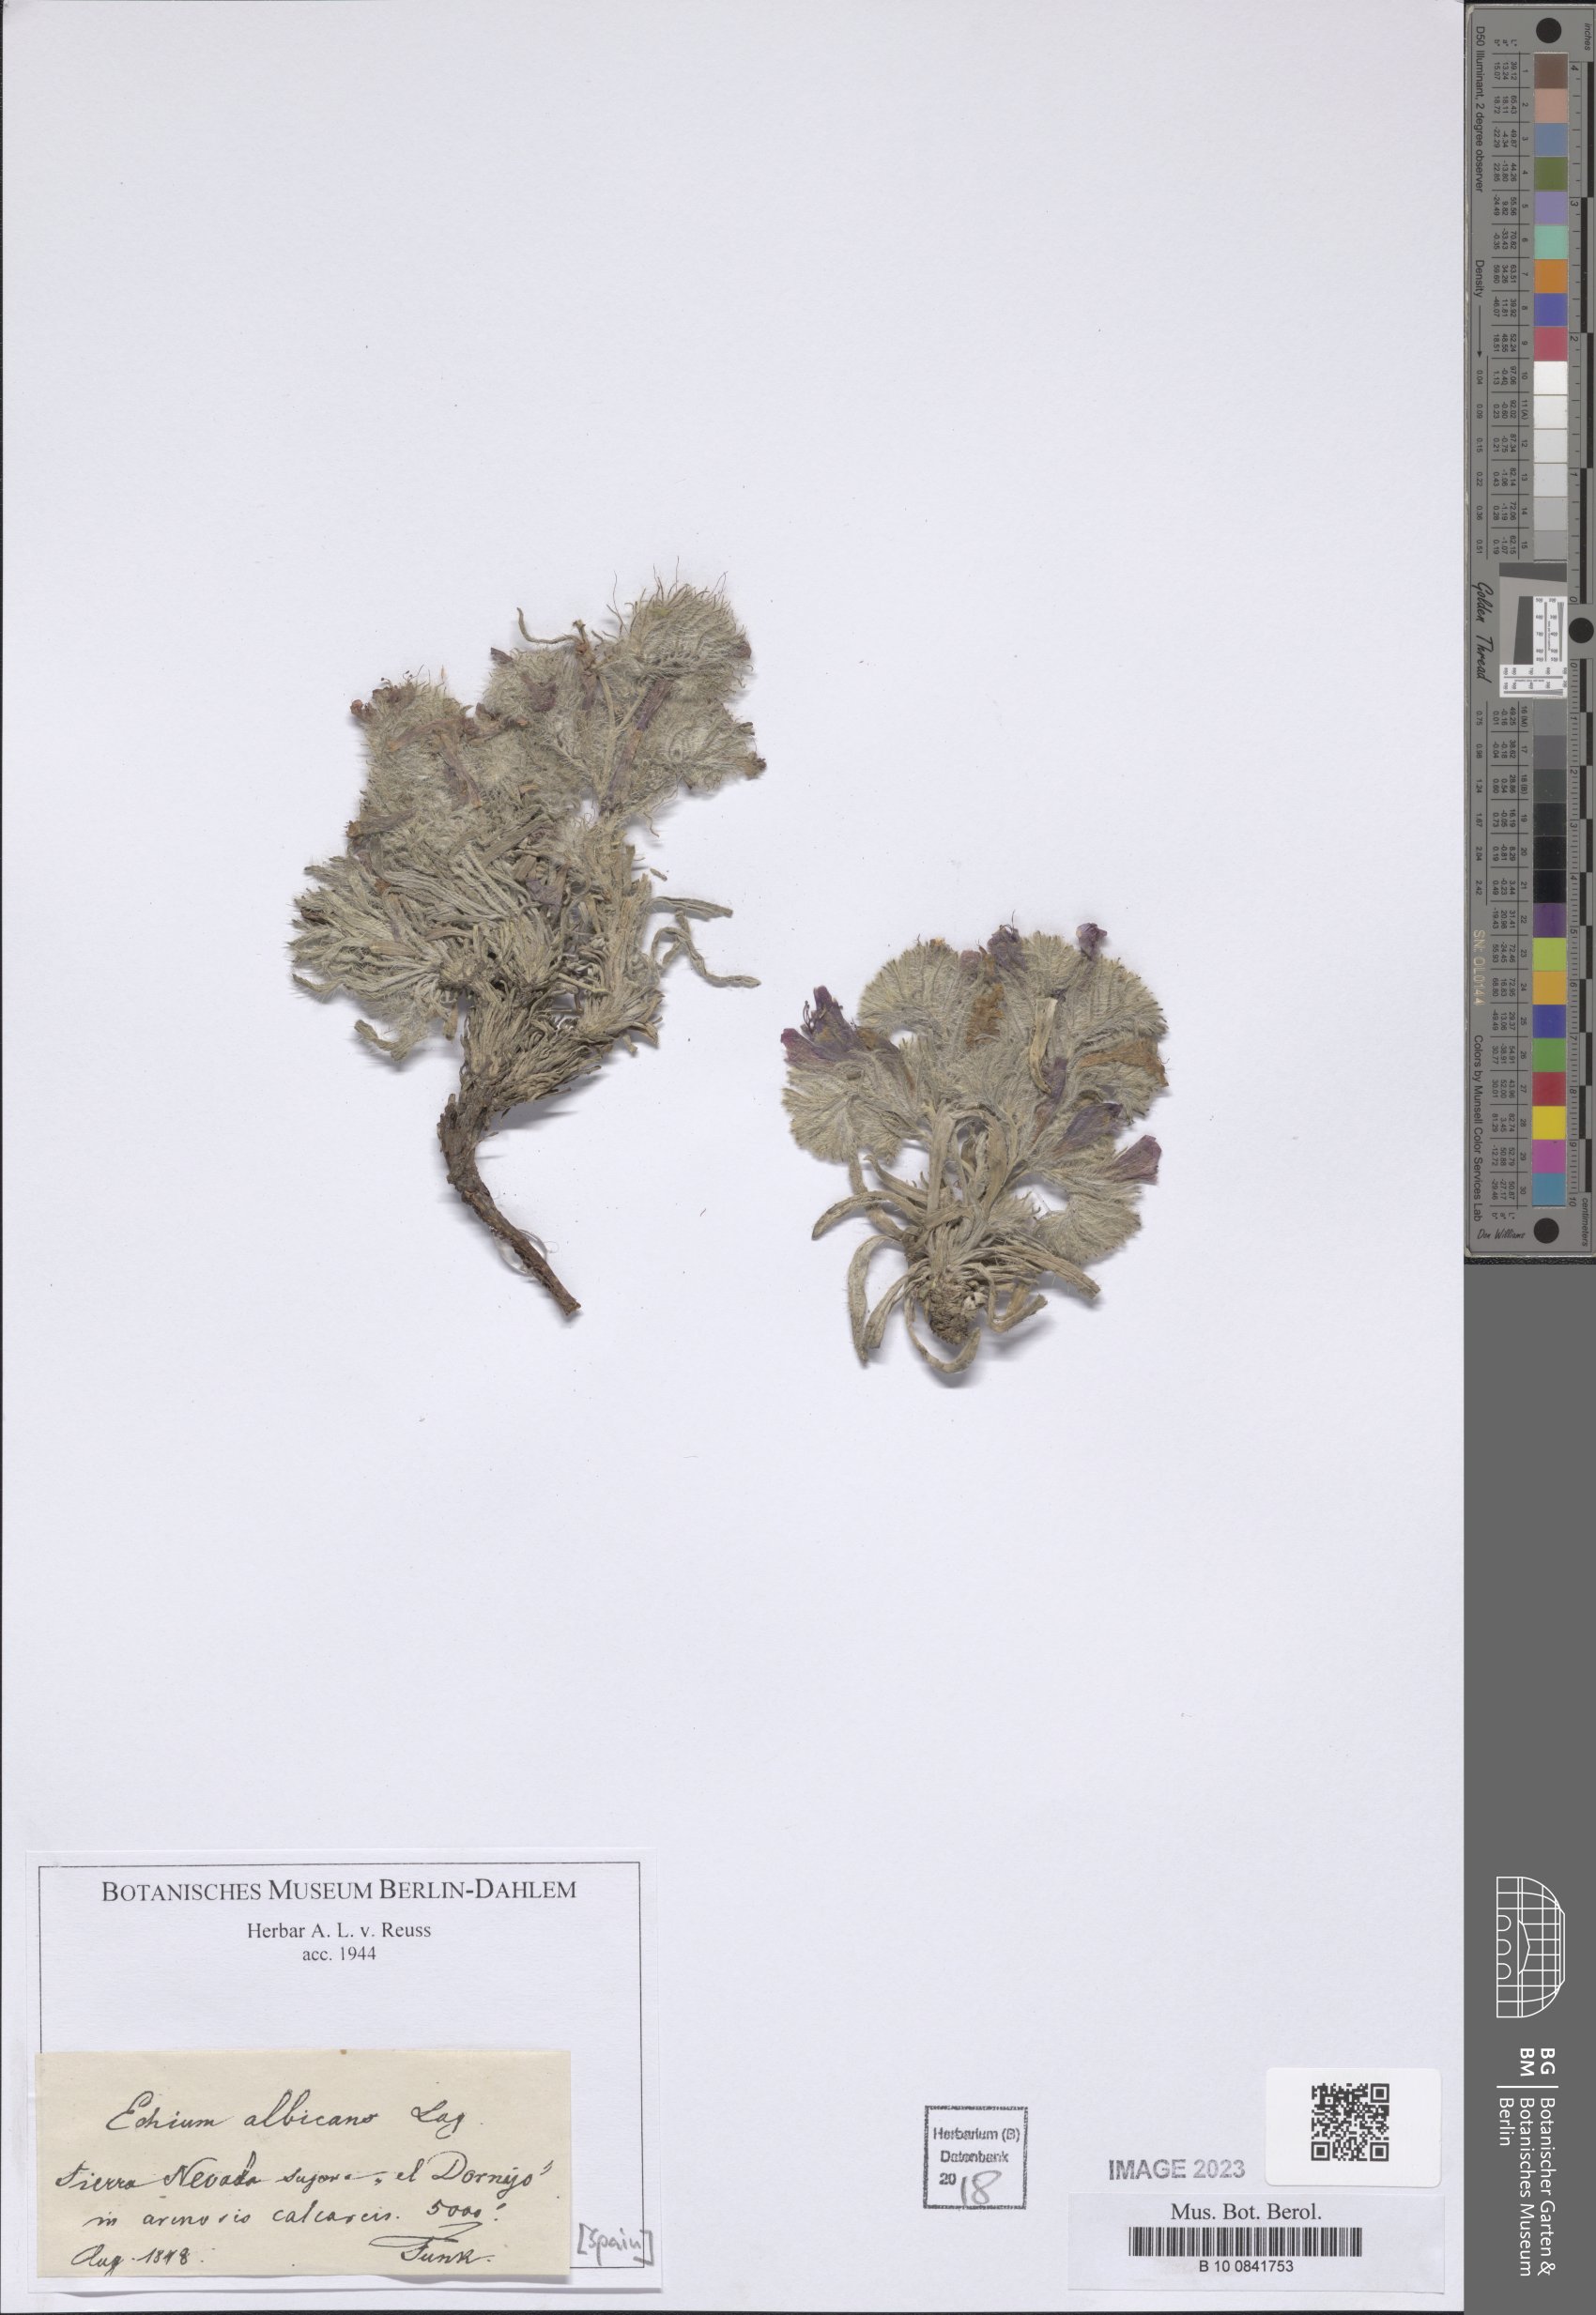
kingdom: Plantae
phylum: Tracheophyta
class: Magnoliopsida
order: Boraginales
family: Boraginaceae
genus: Echium
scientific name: Echium albicans
